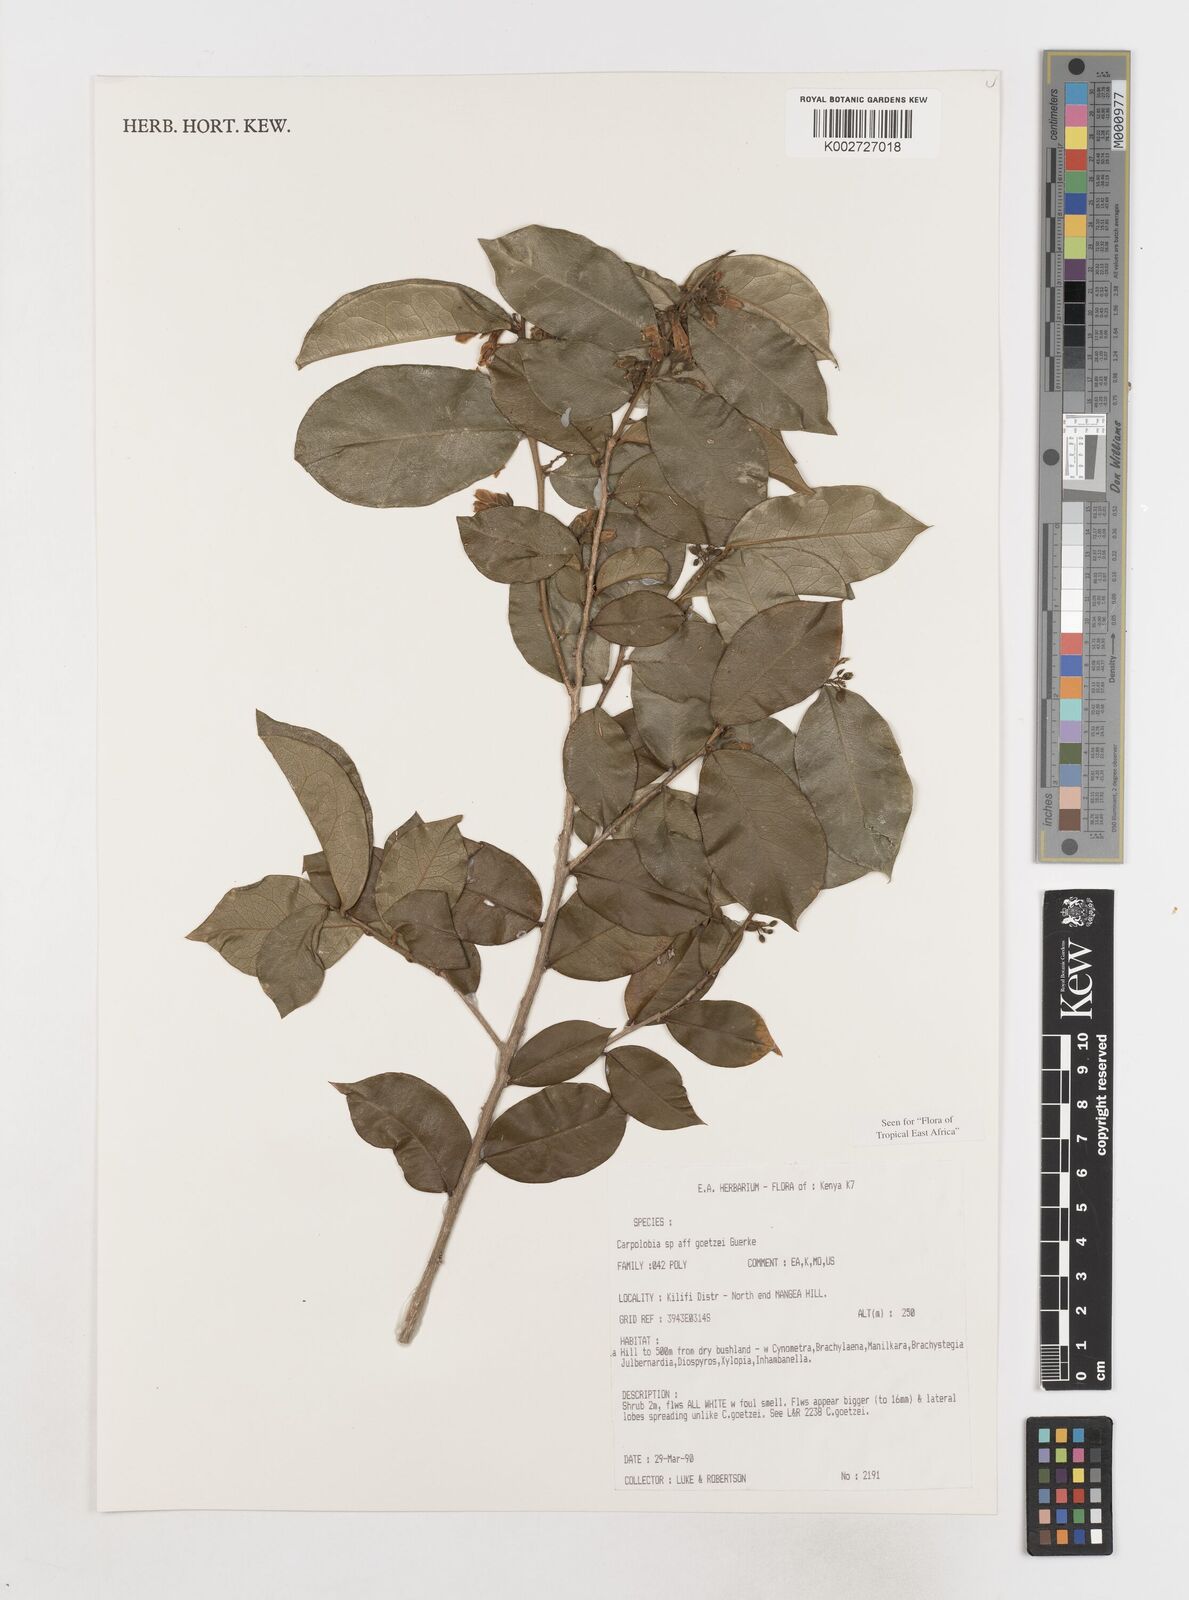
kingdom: Plantae
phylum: Tracheophyta
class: Magnoliopsida
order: Fabales
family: Polygalaceae
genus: Carpolobia
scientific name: Carpolobia goetzei
